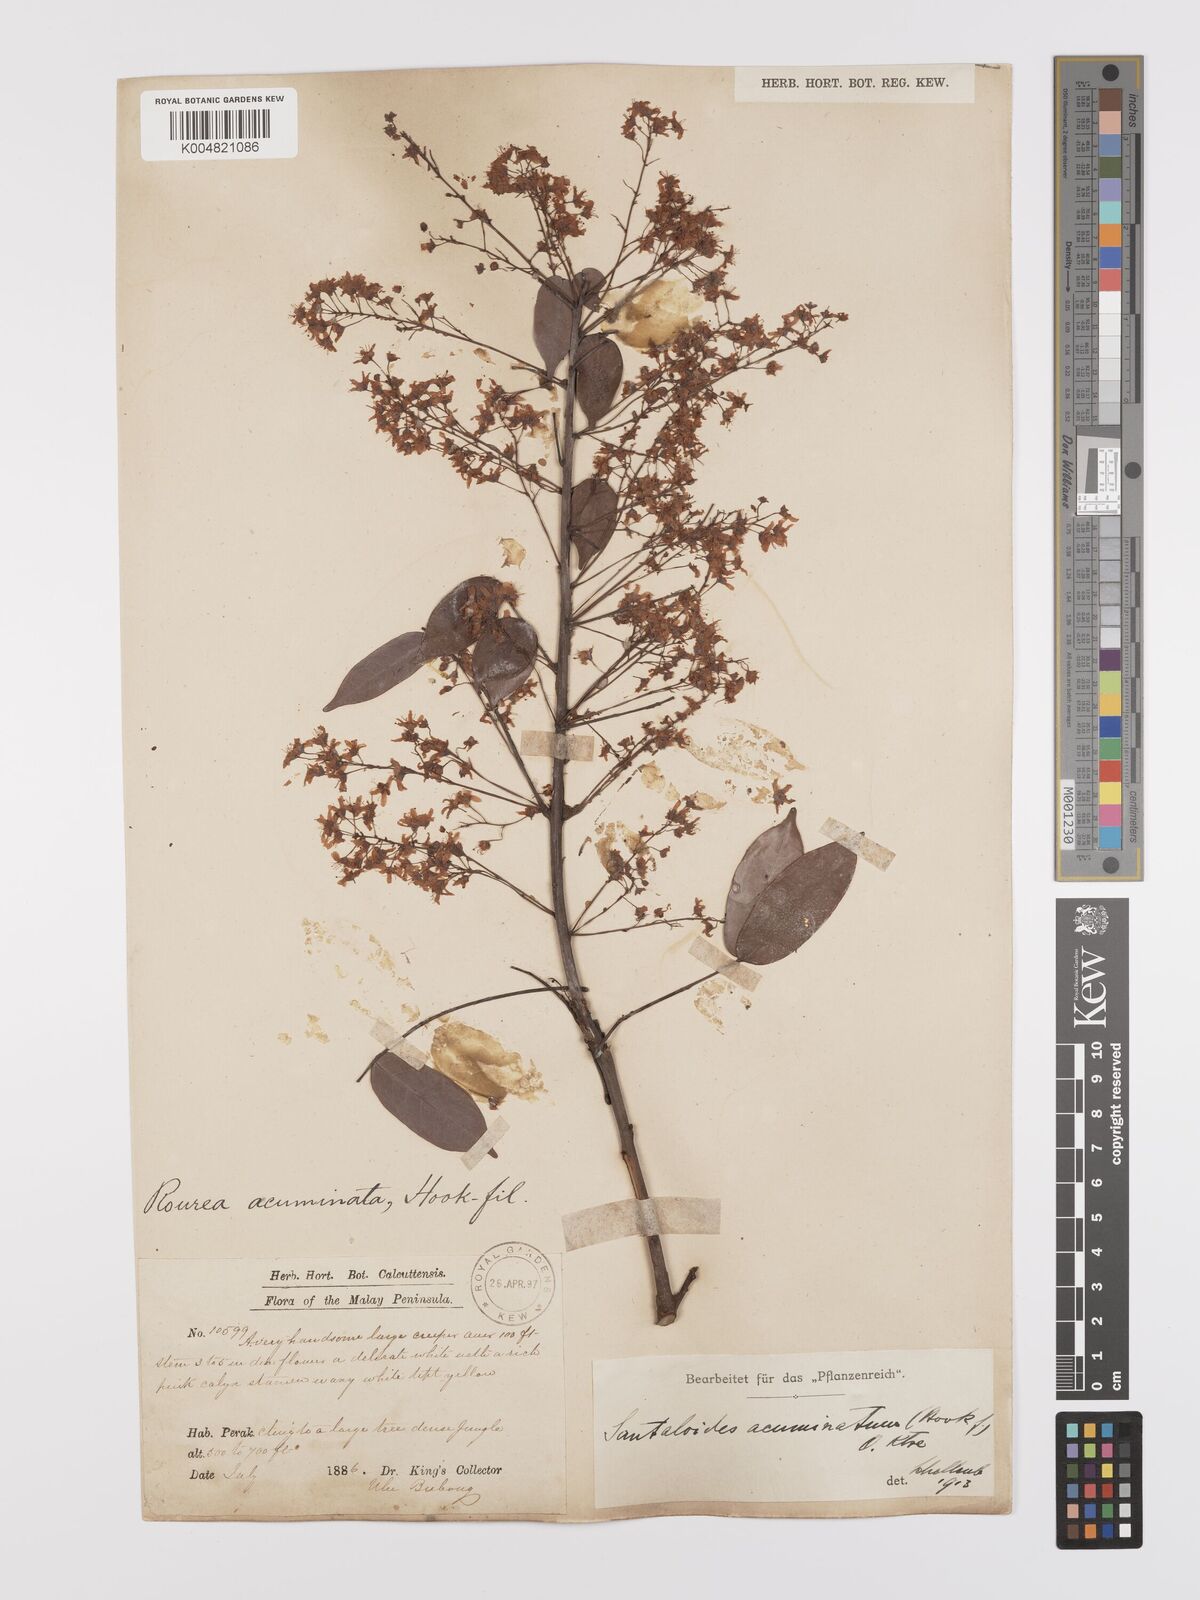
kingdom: Plantae
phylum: Tracheophyta
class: Magnoliopsida
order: Oxalidales
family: Connaraceae
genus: Rourea
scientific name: Rourea minor
